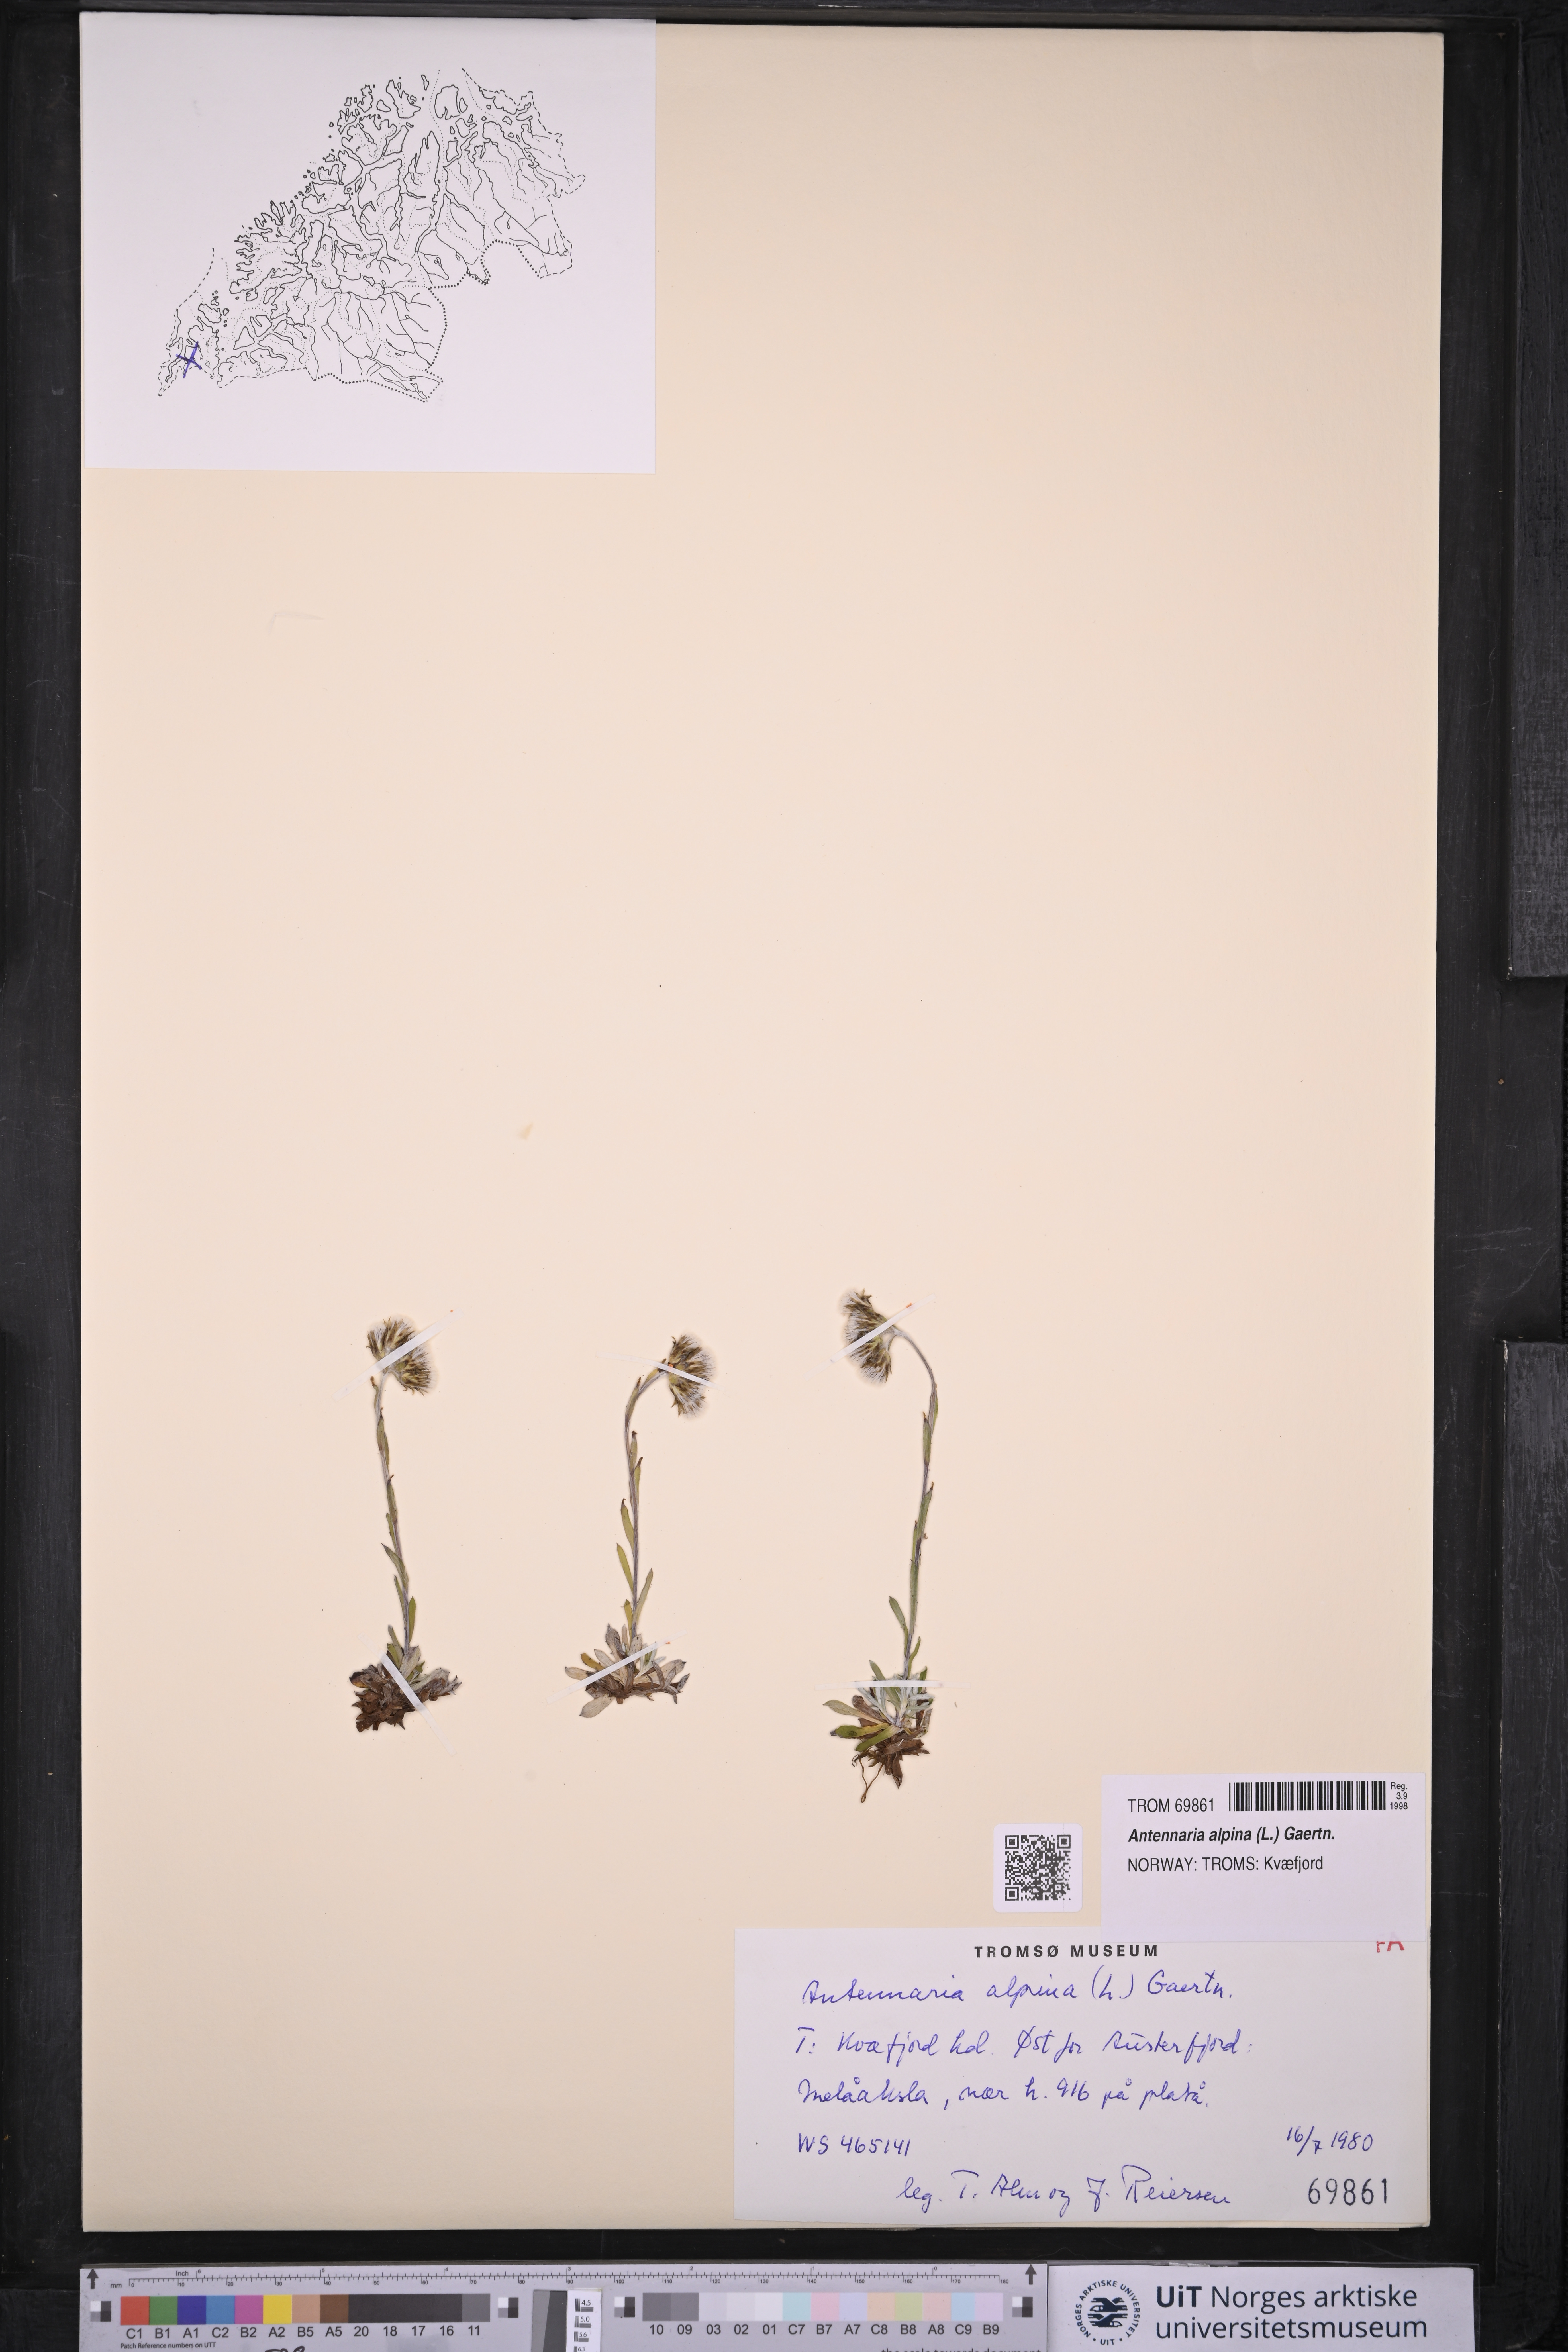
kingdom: Plantae
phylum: Tracheophyta
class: Magnoliopsida
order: Asterales
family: Asteraceae
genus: Antennaria
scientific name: Antennaria alpina
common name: Alpine pussytoes
